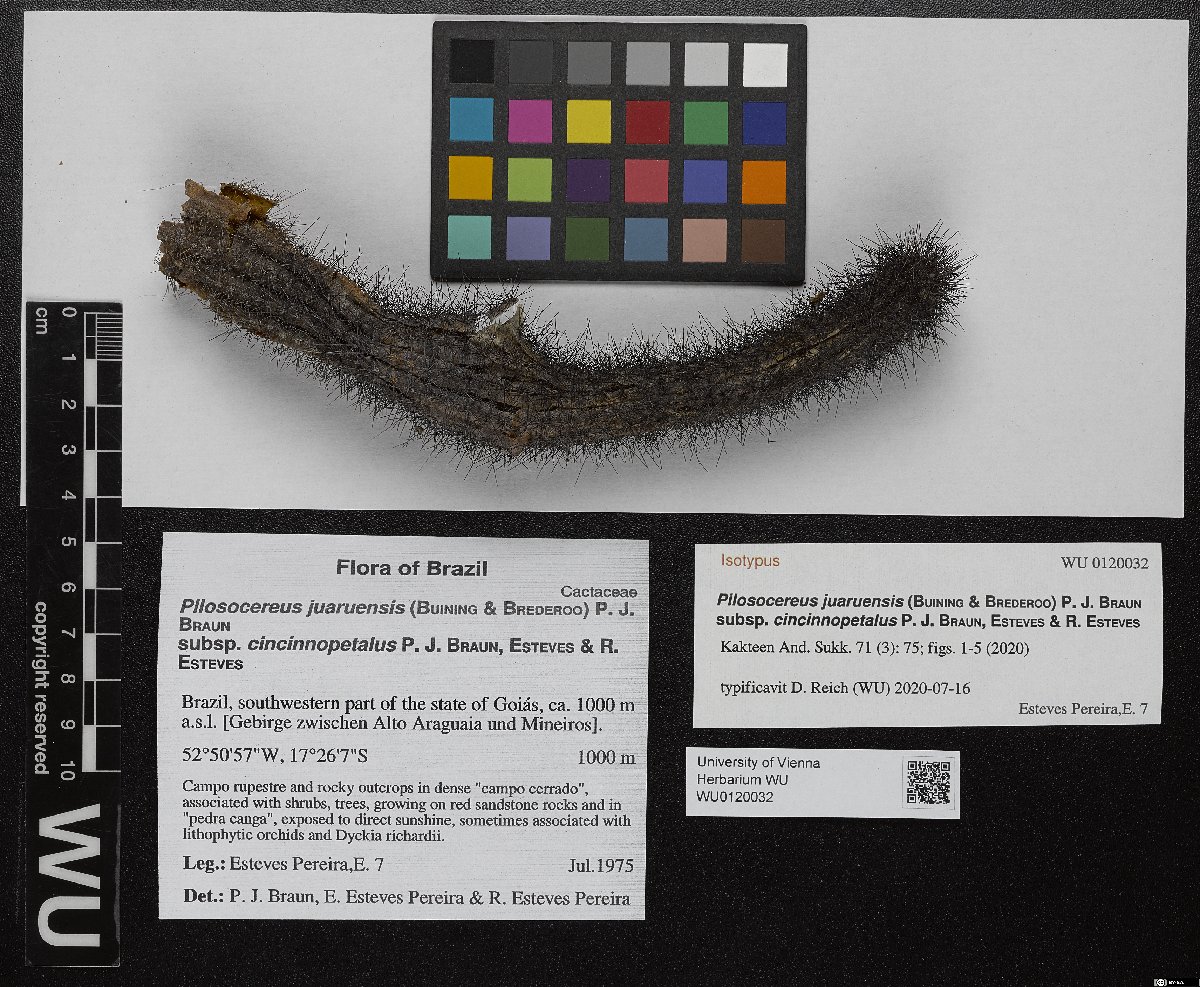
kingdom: Plantae
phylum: Tracheophyta
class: Magnoliopsida
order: Caryophyllales
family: Cactaceae
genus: Pilosocereus
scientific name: Pilosocereus juaruensis
